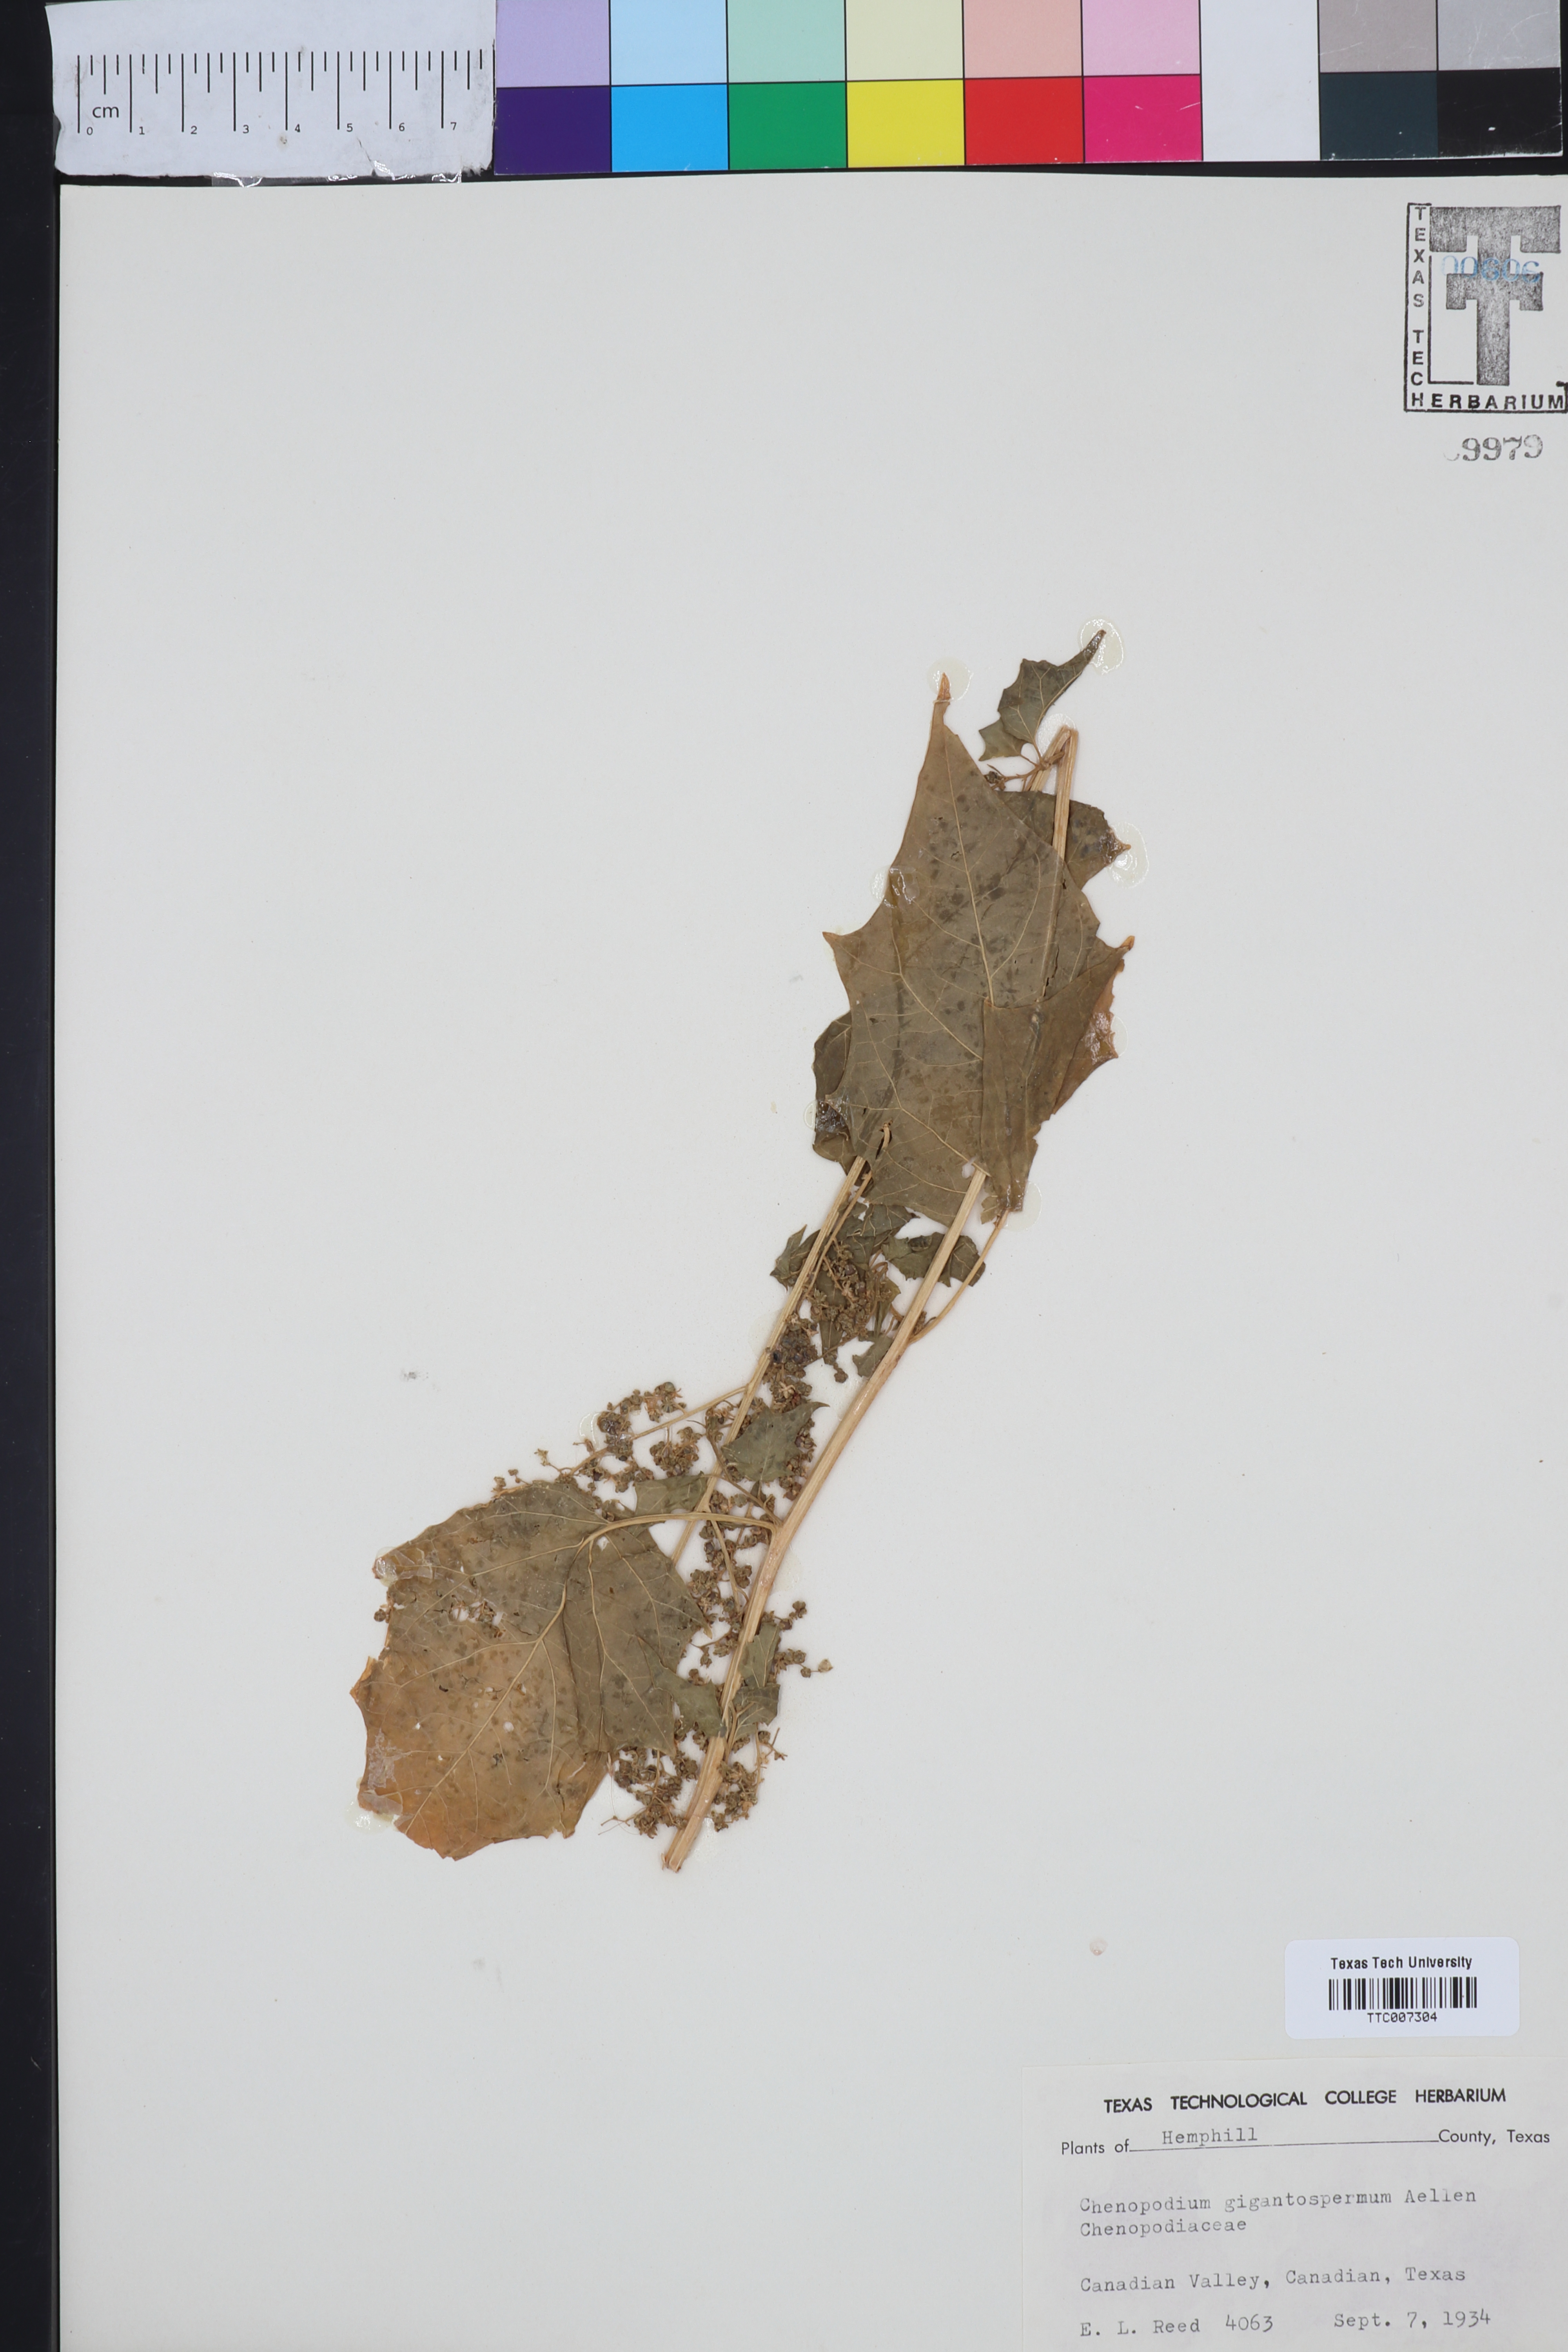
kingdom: Plantae
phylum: Tracheophyta
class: Magnoliopsida
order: Caryophyllales
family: Amaranthaceae
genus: Chenopodiastrum
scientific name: Chenopodiastrum simplex
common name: Large-seed goosefoot
